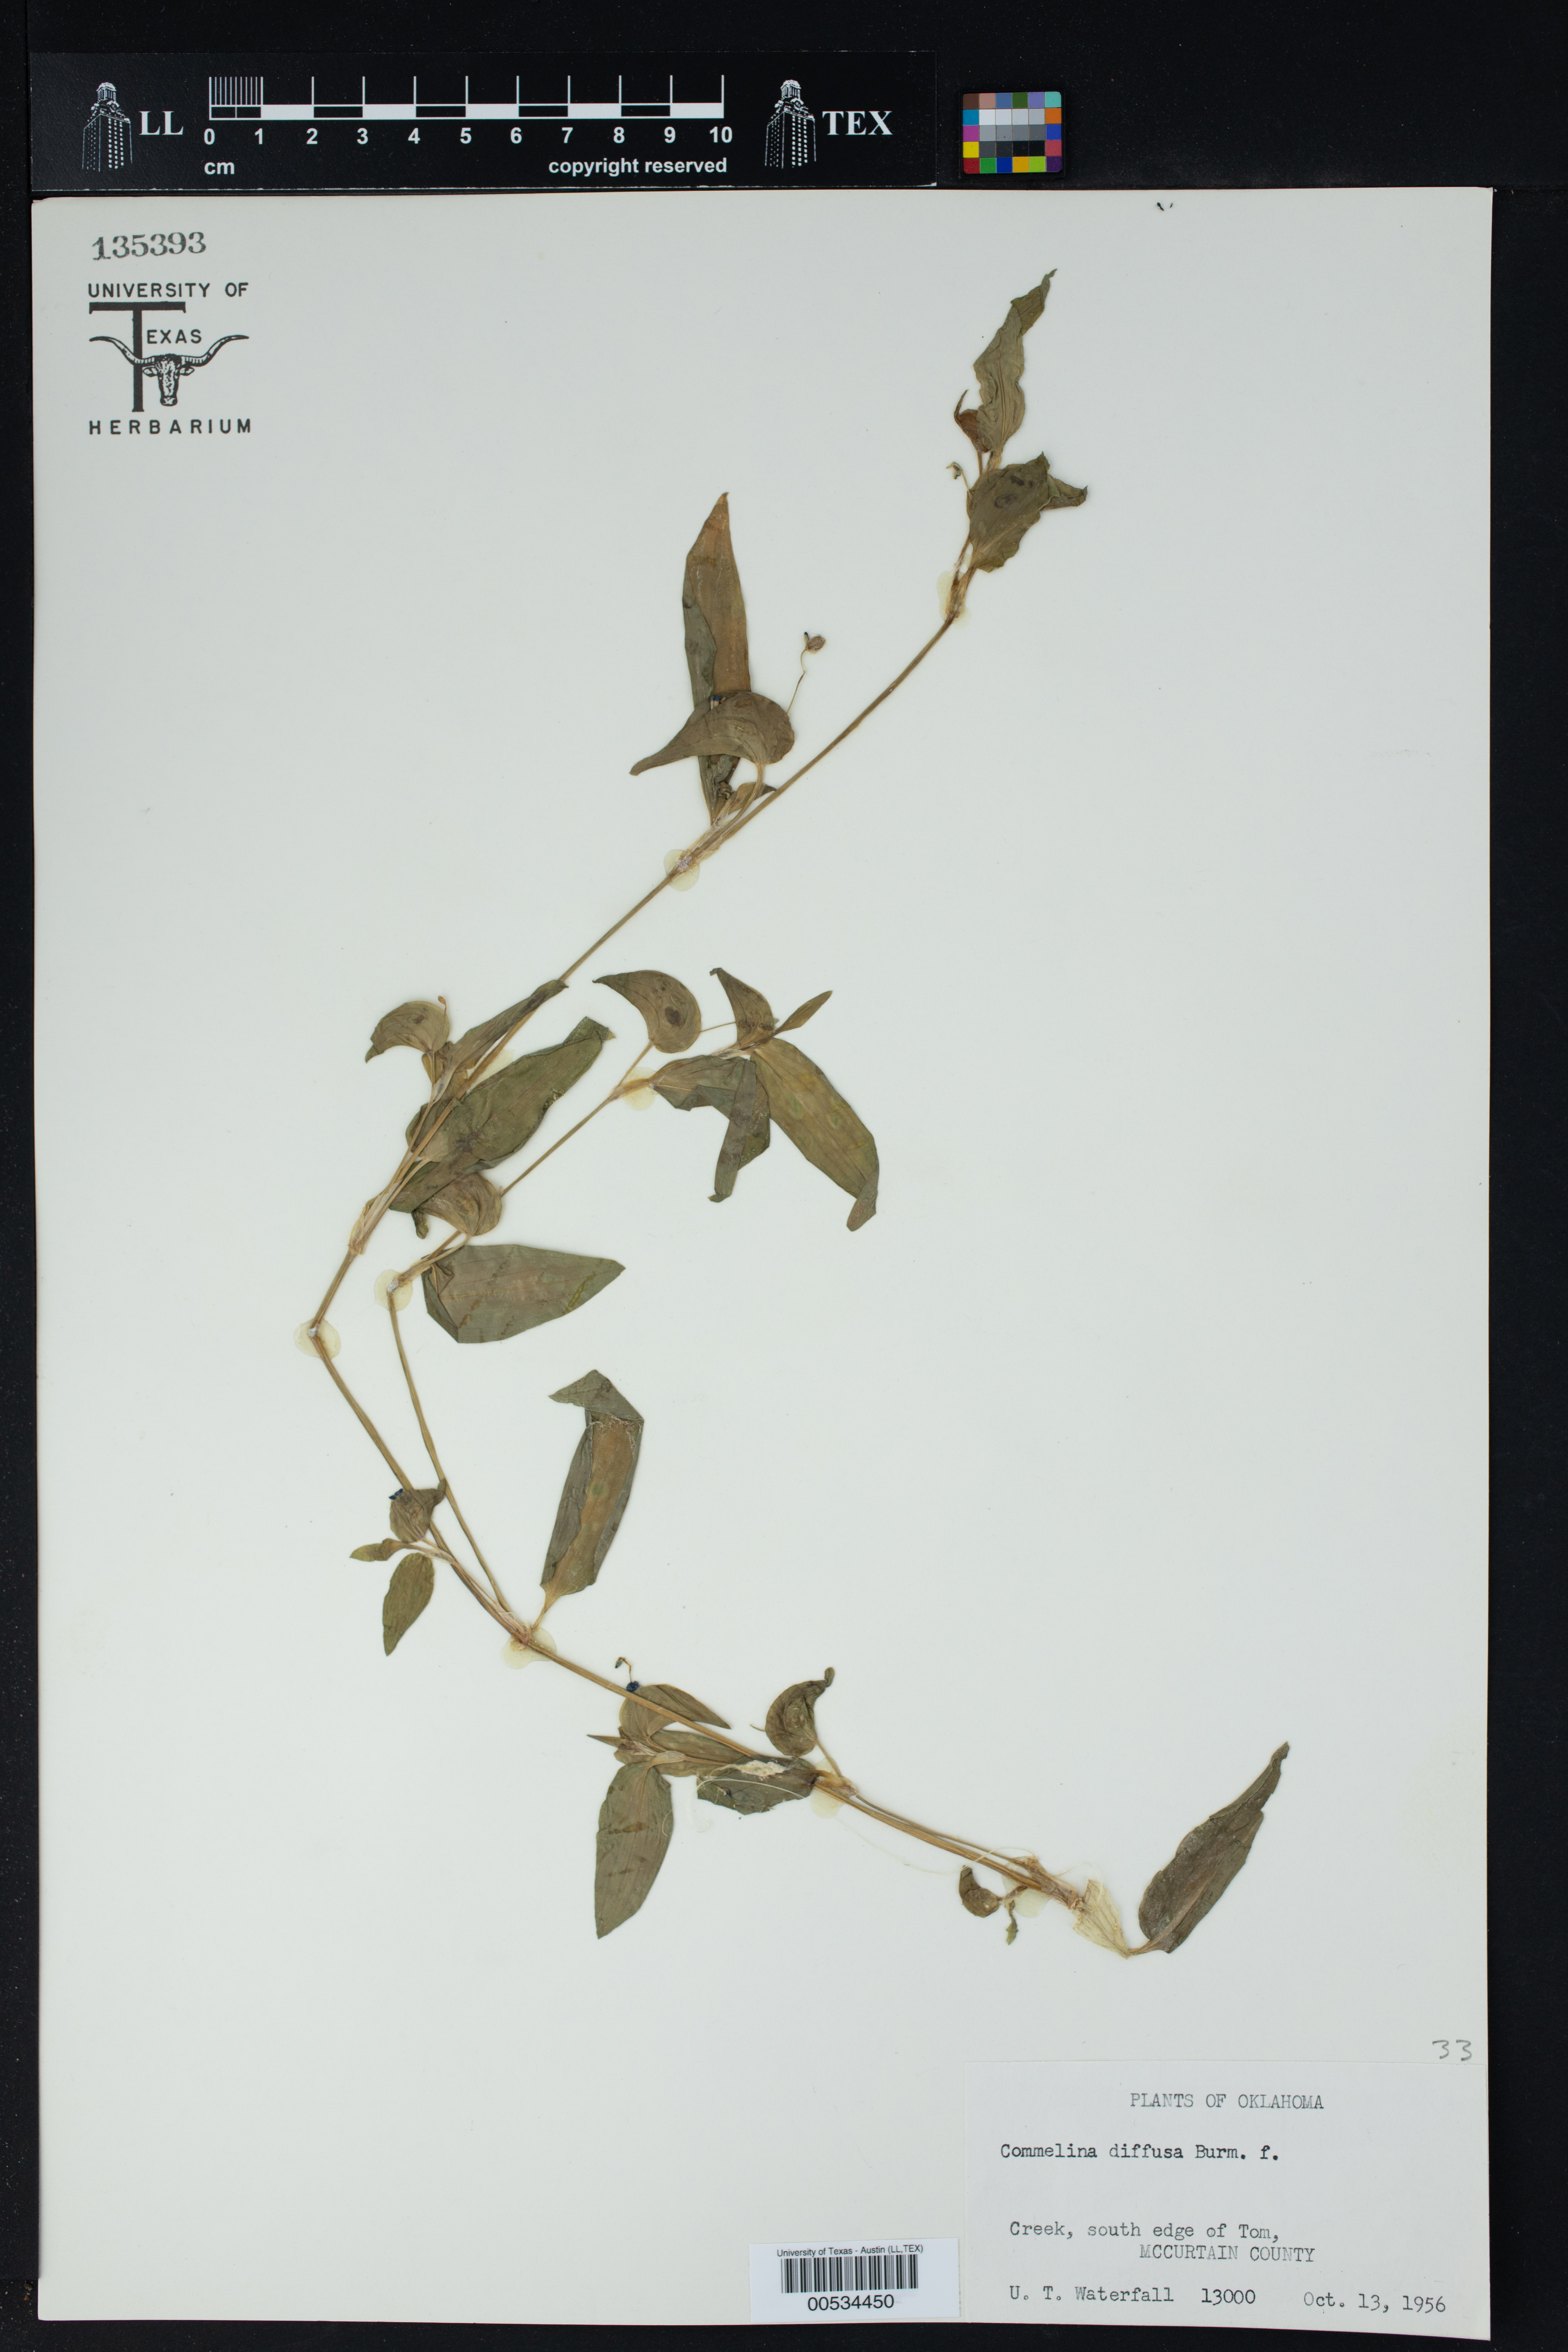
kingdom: Plantae
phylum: Tracheophyta
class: Liliopsida
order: Commelinales
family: Commelinaceae
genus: Commelina
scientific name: Commelina diffusa
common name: Climbing dayflower
